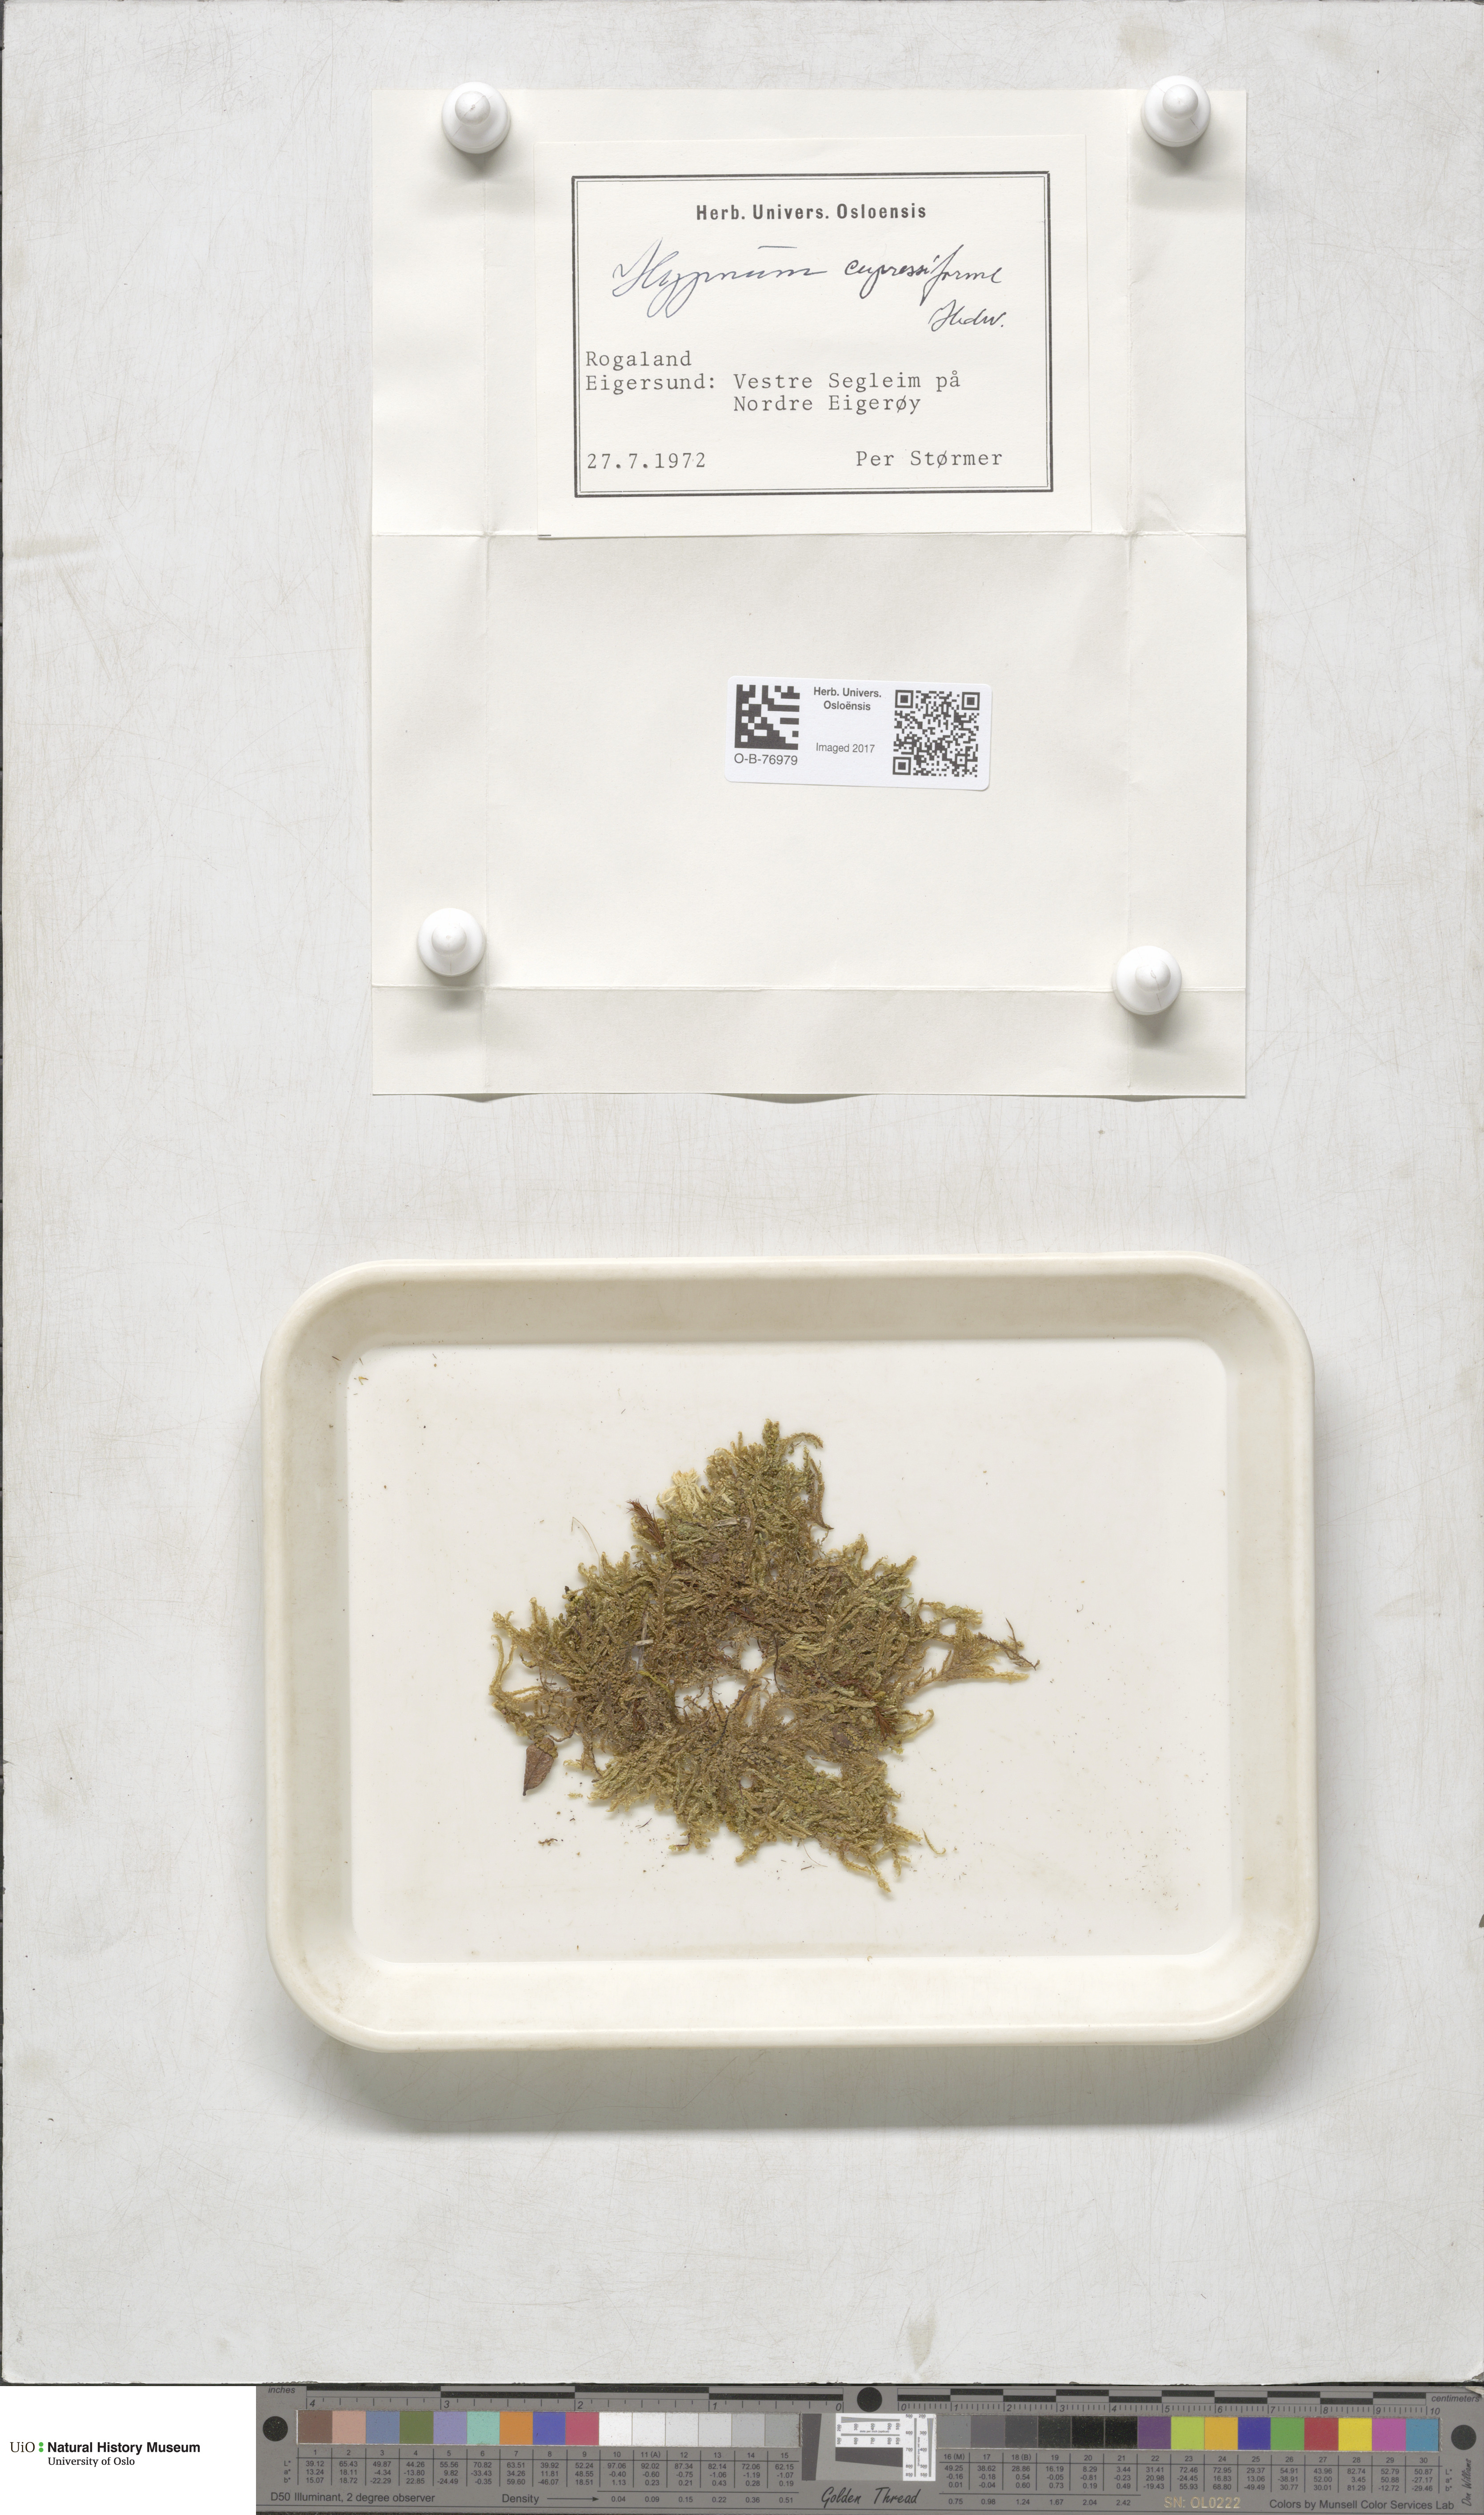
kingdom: Plantae
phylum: Bryophyta
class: Bryopsida
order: Hypnales
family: Hypnaceae
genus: Hypnum
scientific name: Hypnum cupressiforme
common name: Cypress-leaved plait-moss
